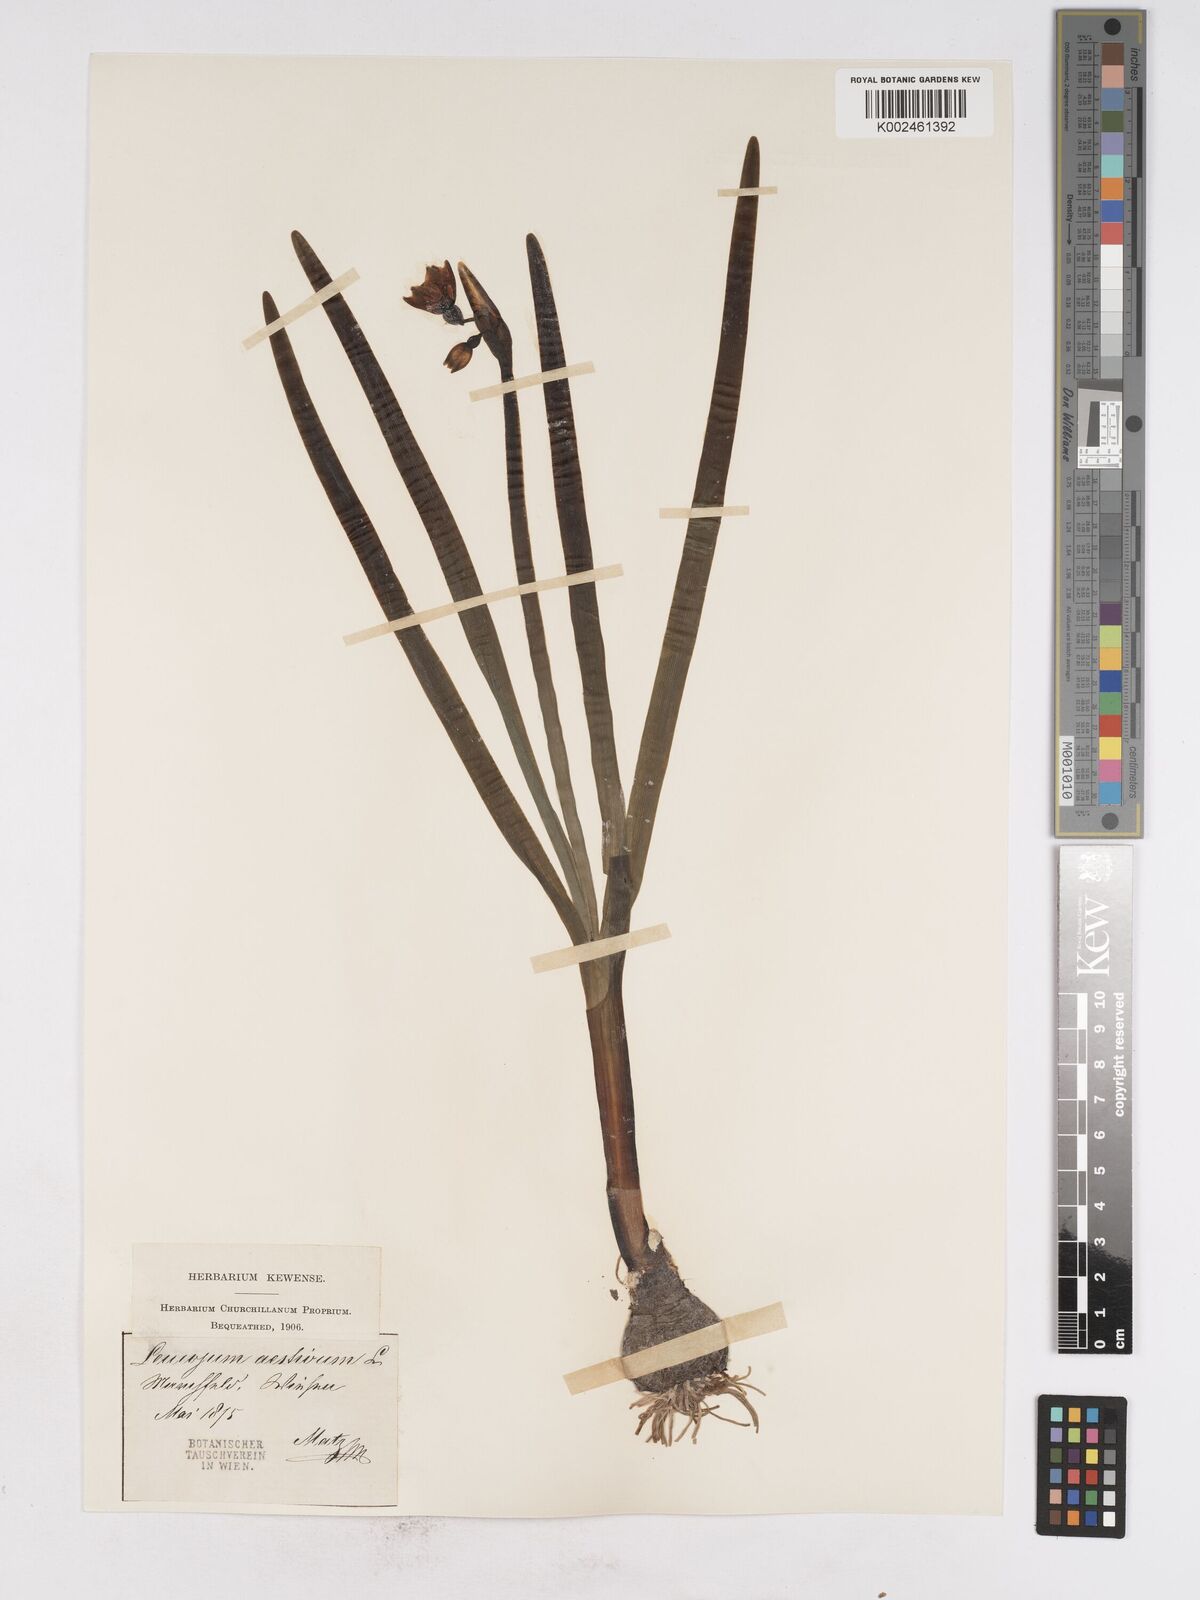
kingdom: Plantae
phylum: Tracheophyta
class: Liliopsida
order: Asparagales
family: Amaryllidaceae
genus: Leucojum
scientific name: Leucojum aestivum
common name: Summer snowflake
